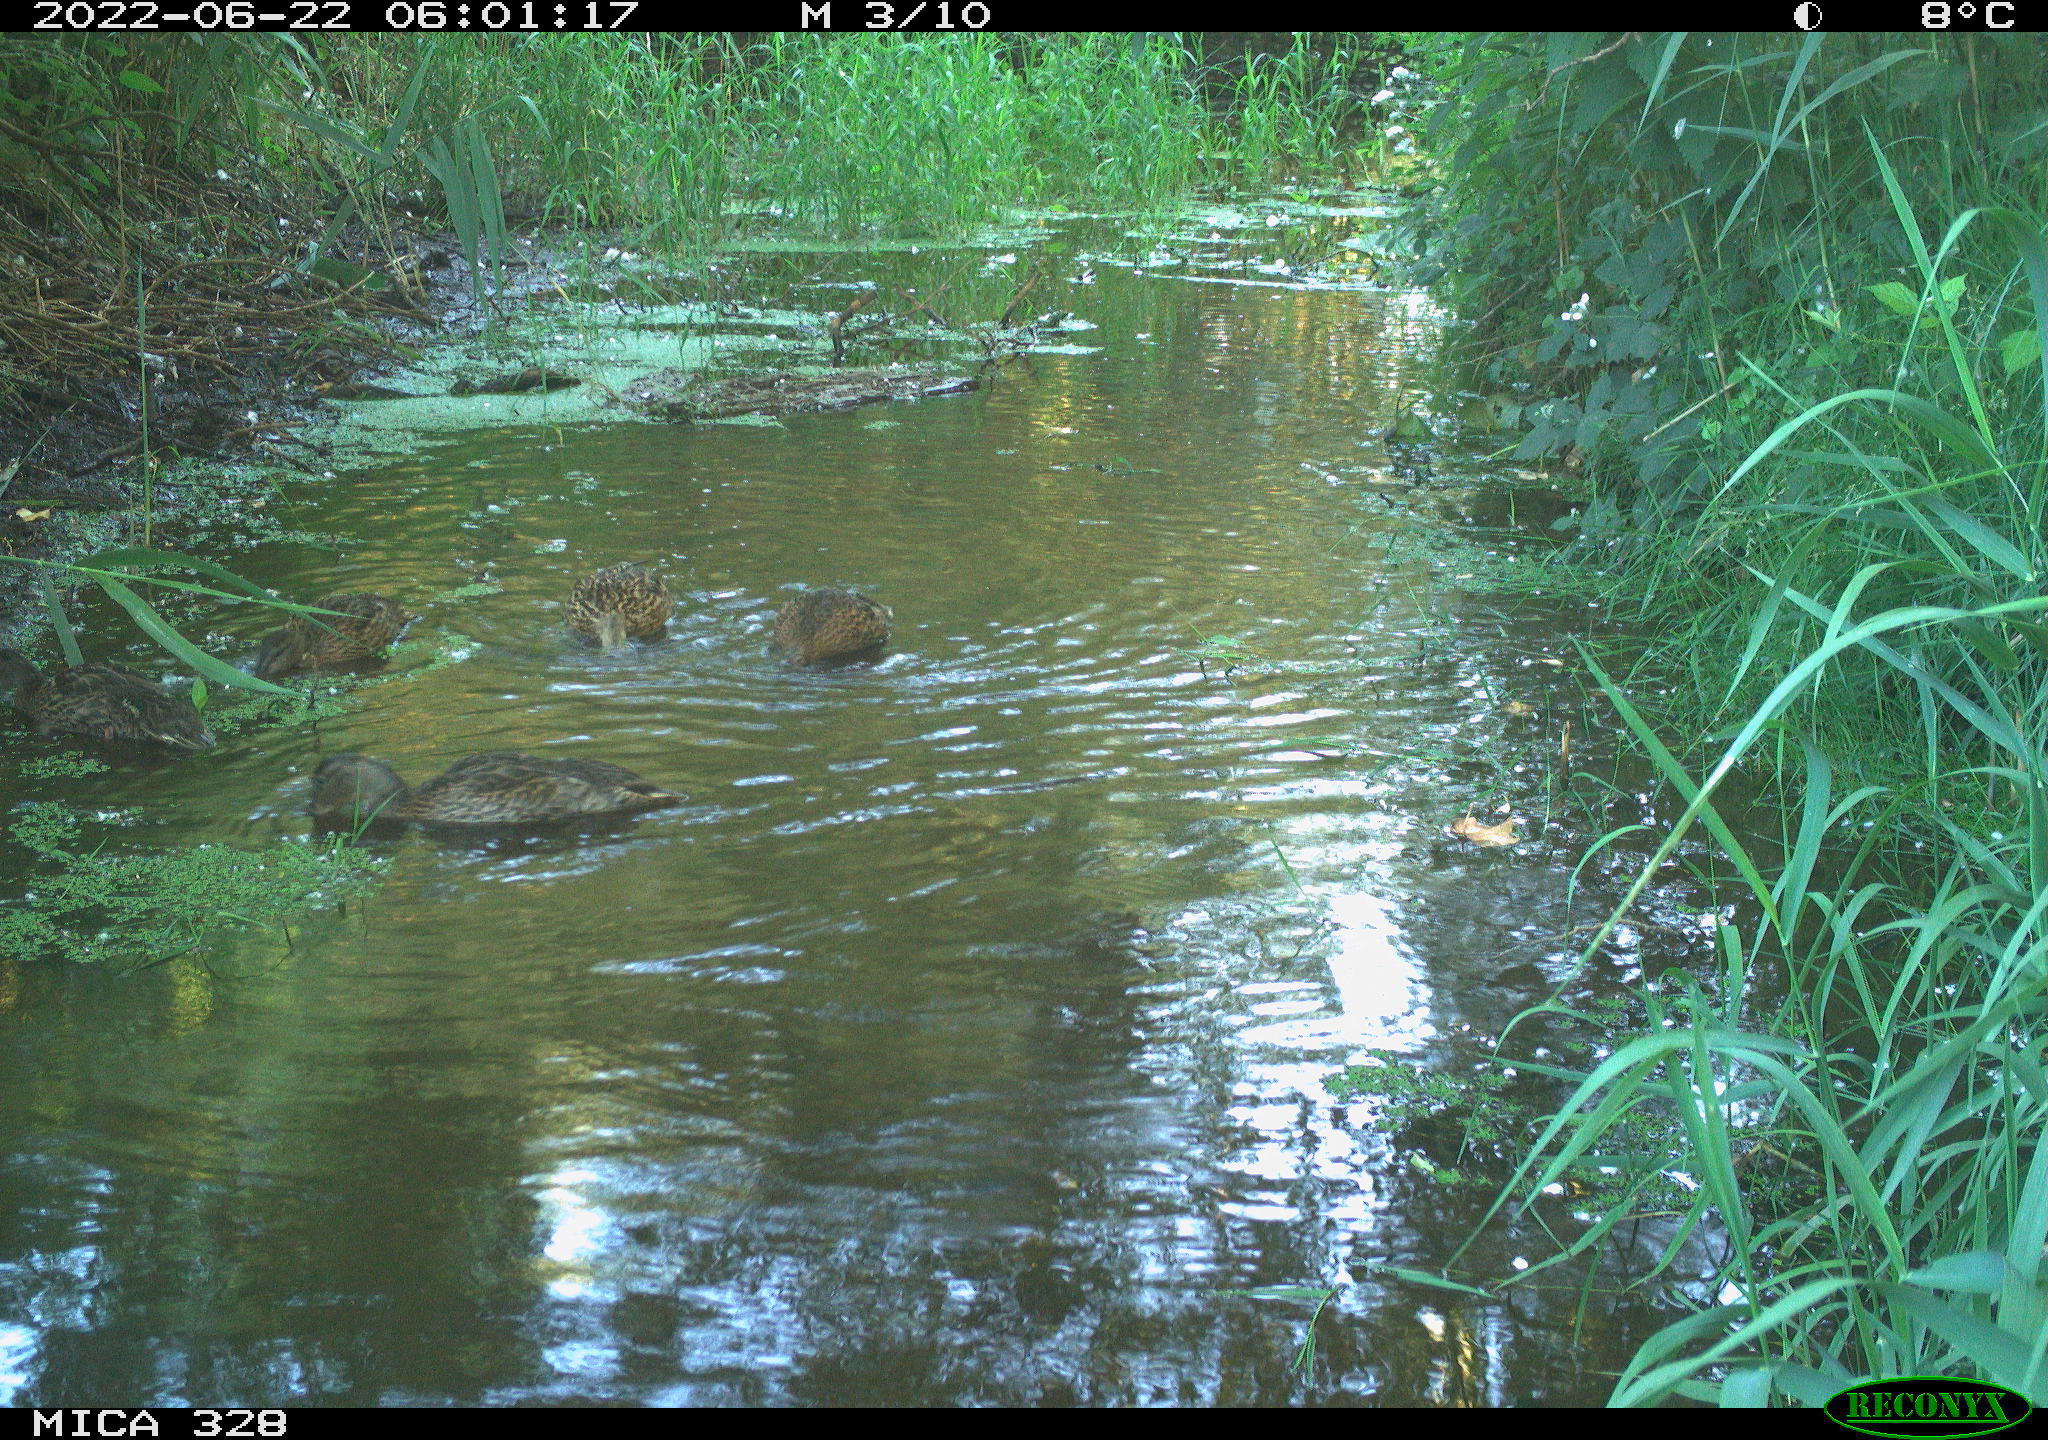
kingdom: Animalia
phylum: Chordata
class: Aves
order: Anseriformes
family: Anatidae
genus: Anas
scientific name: Anas
